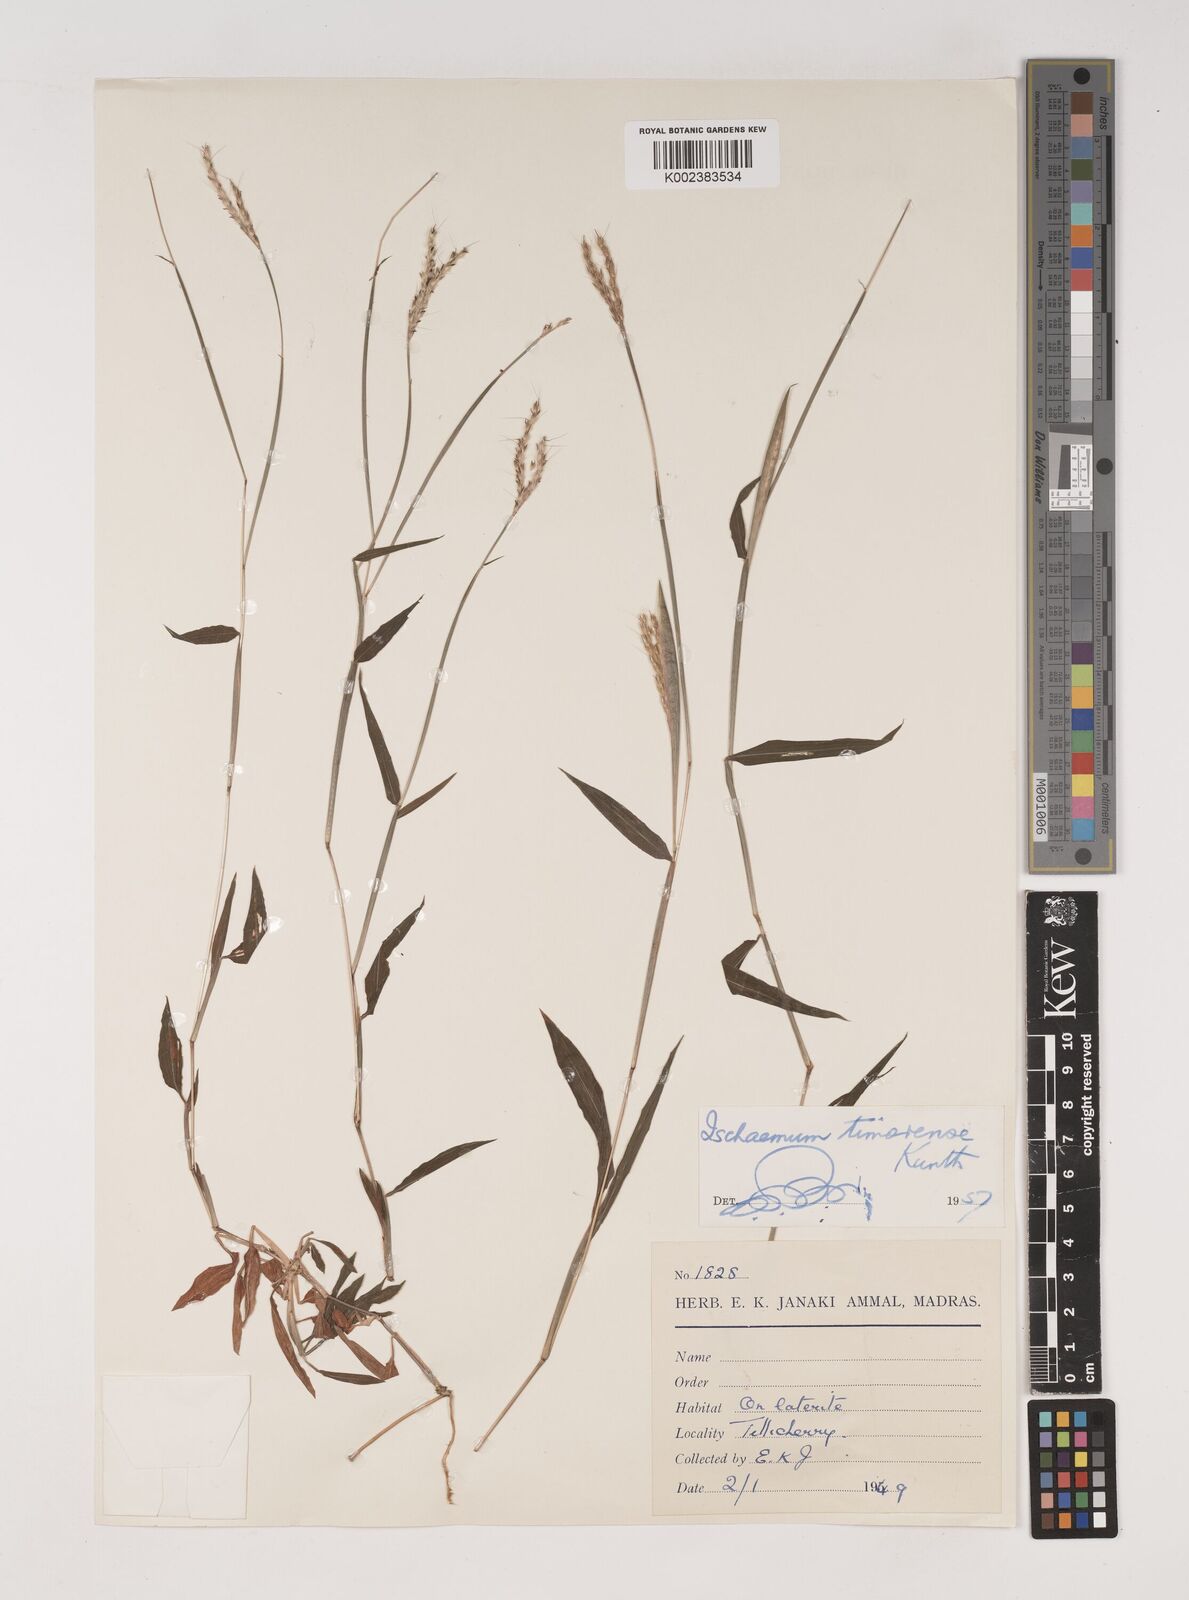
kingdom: Plantae
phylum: Tracheophyta
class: Liliopsida
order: Poales
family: Poaceae
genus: Ischaemum
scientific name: Ischaemum timorense
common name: Stalkleaf murainagrass
